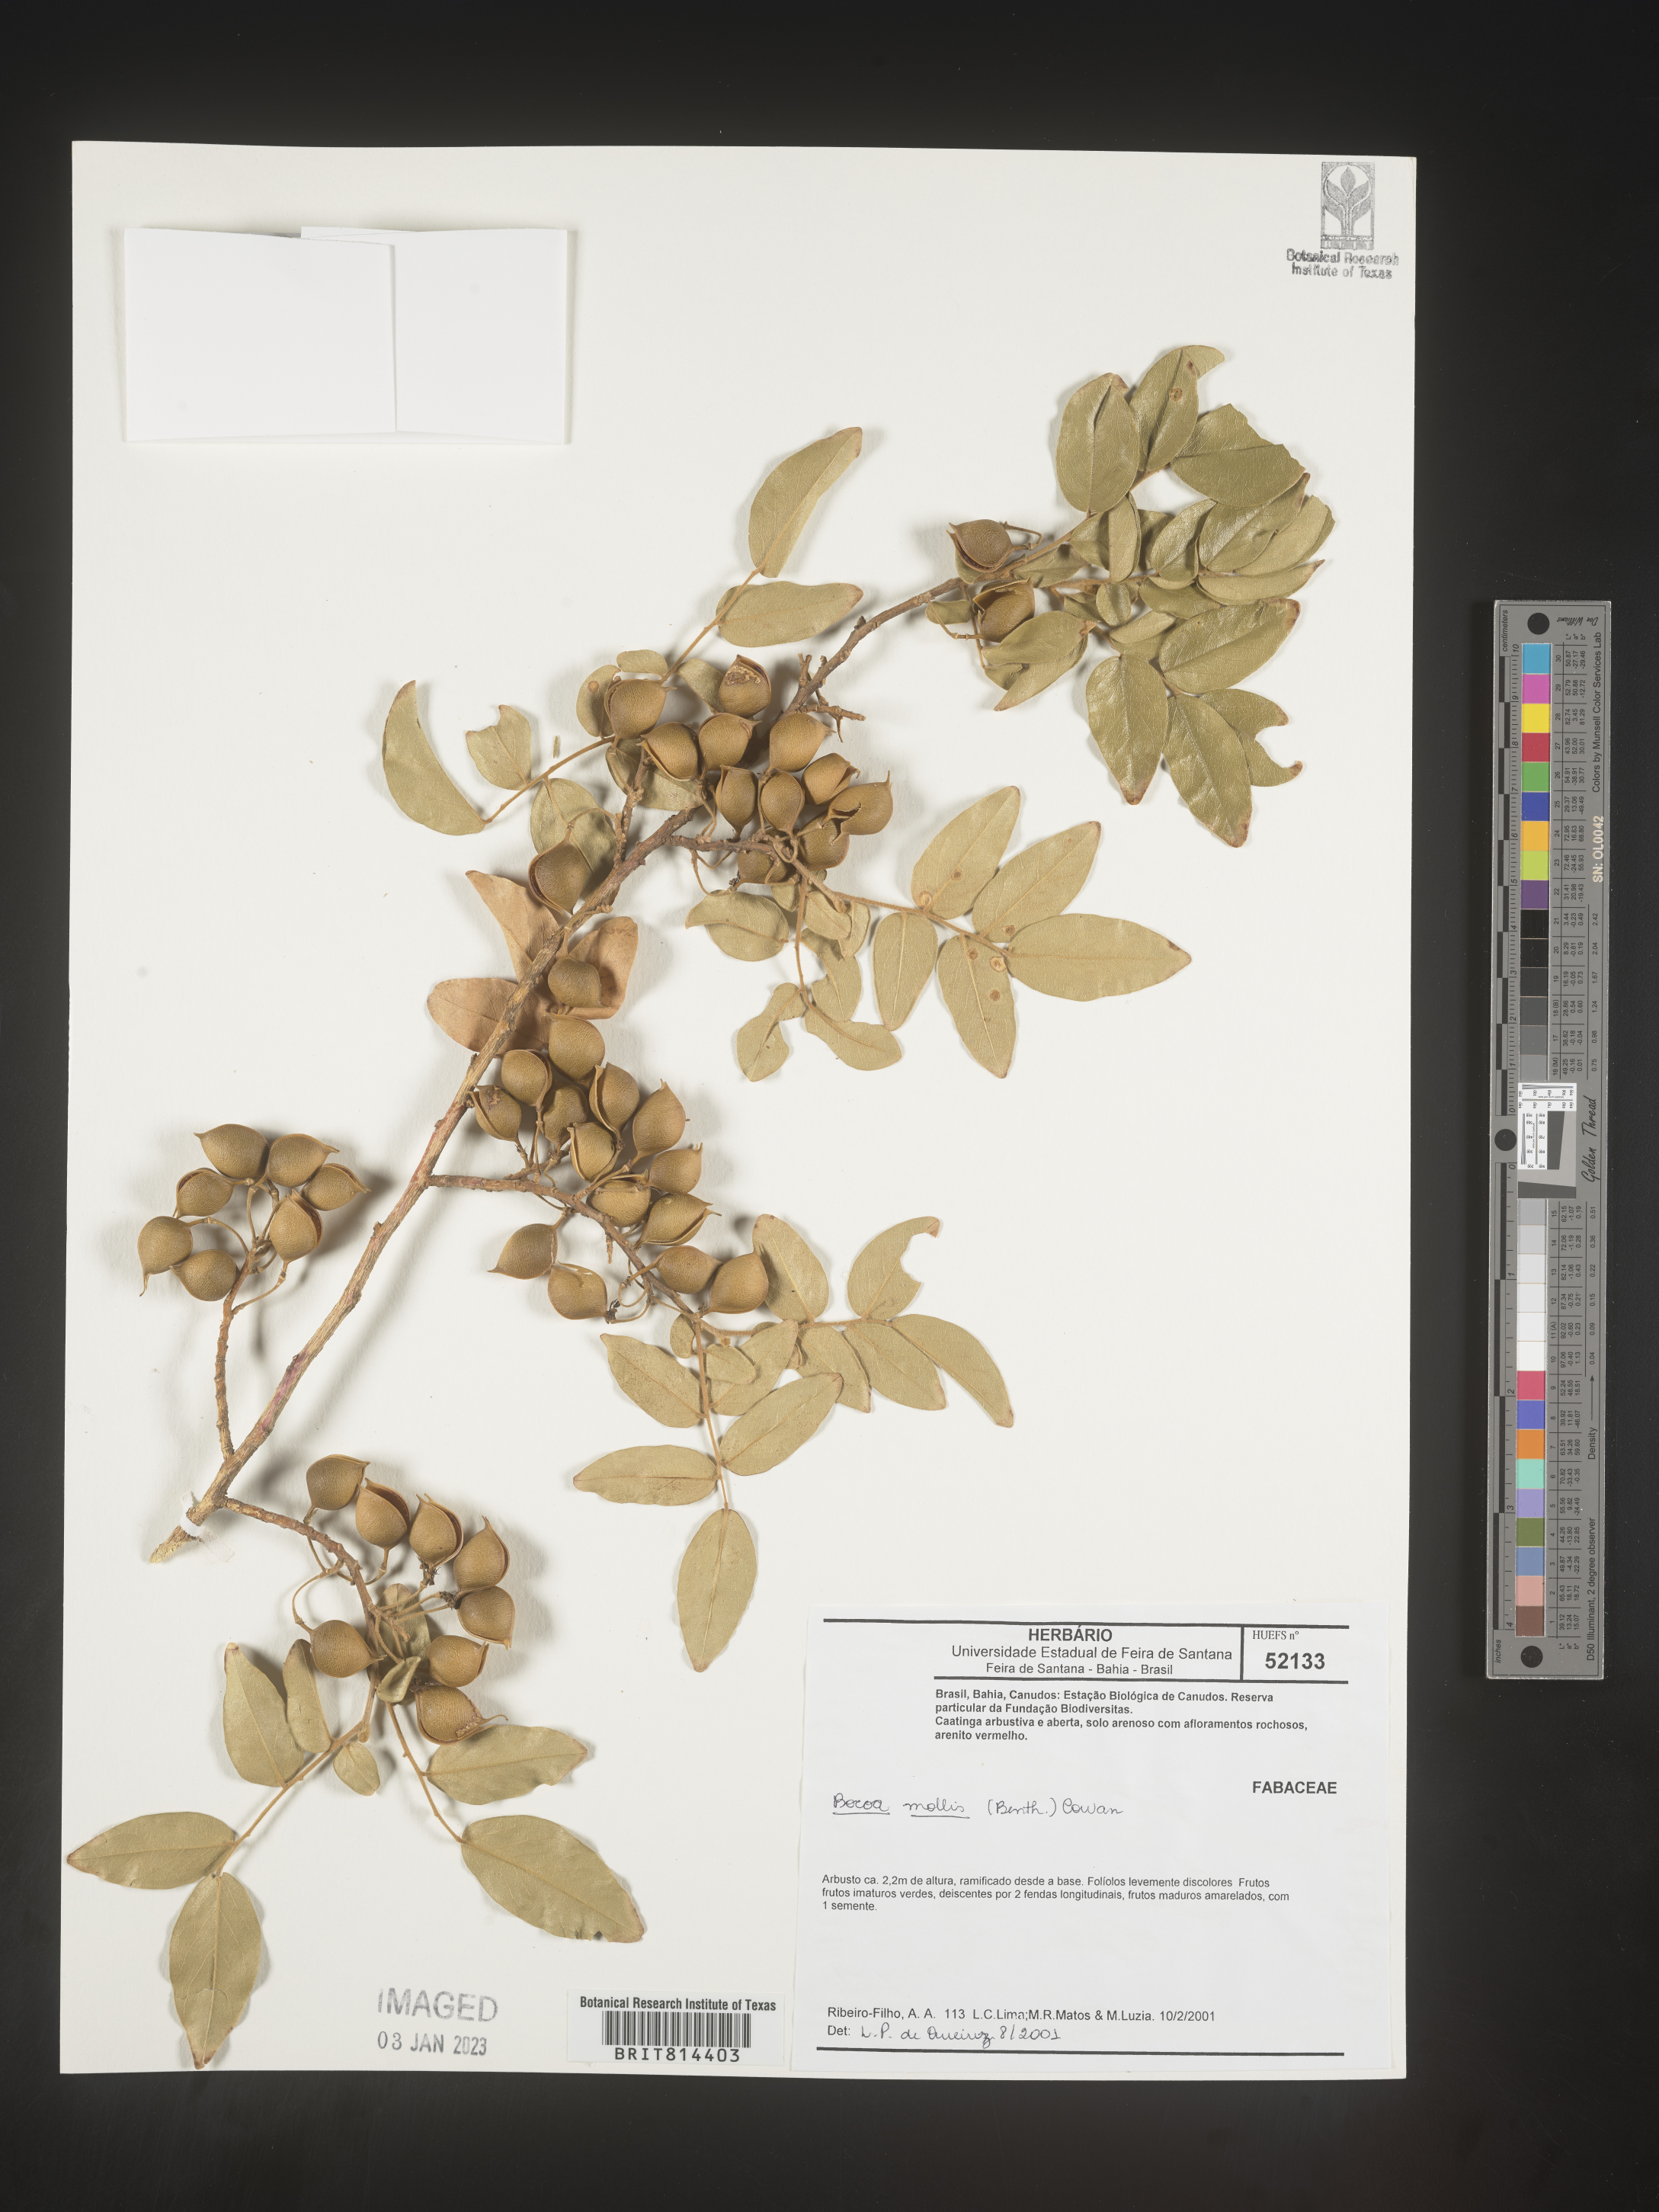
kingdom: Plantae
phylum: Tracheophyta
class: Magnoliopsida
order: Fabales
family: Fabaceae
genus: Bocoa
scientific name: Bocoa
